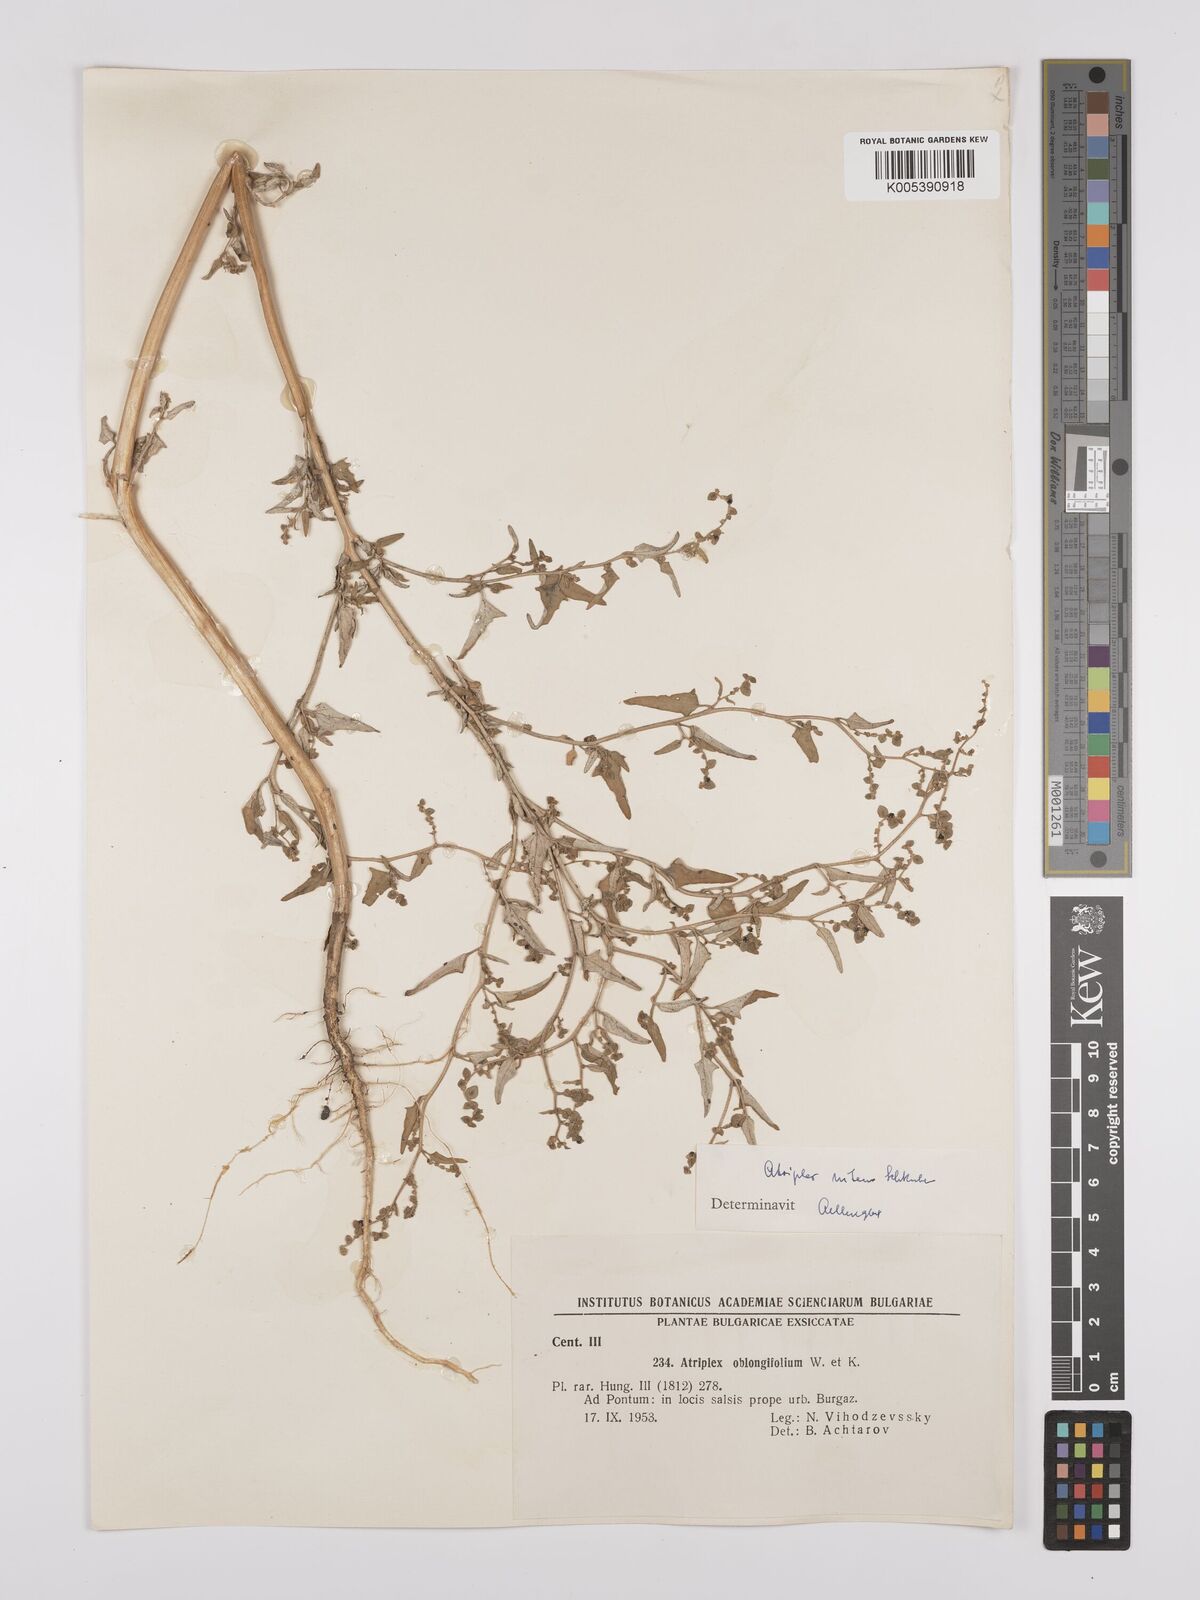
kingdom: Plantae
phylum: Tracheophyta
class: Magnoliopsida
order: Caryophyllales
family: Amaranthaceae
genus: Atriplex
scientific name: Atriplex
